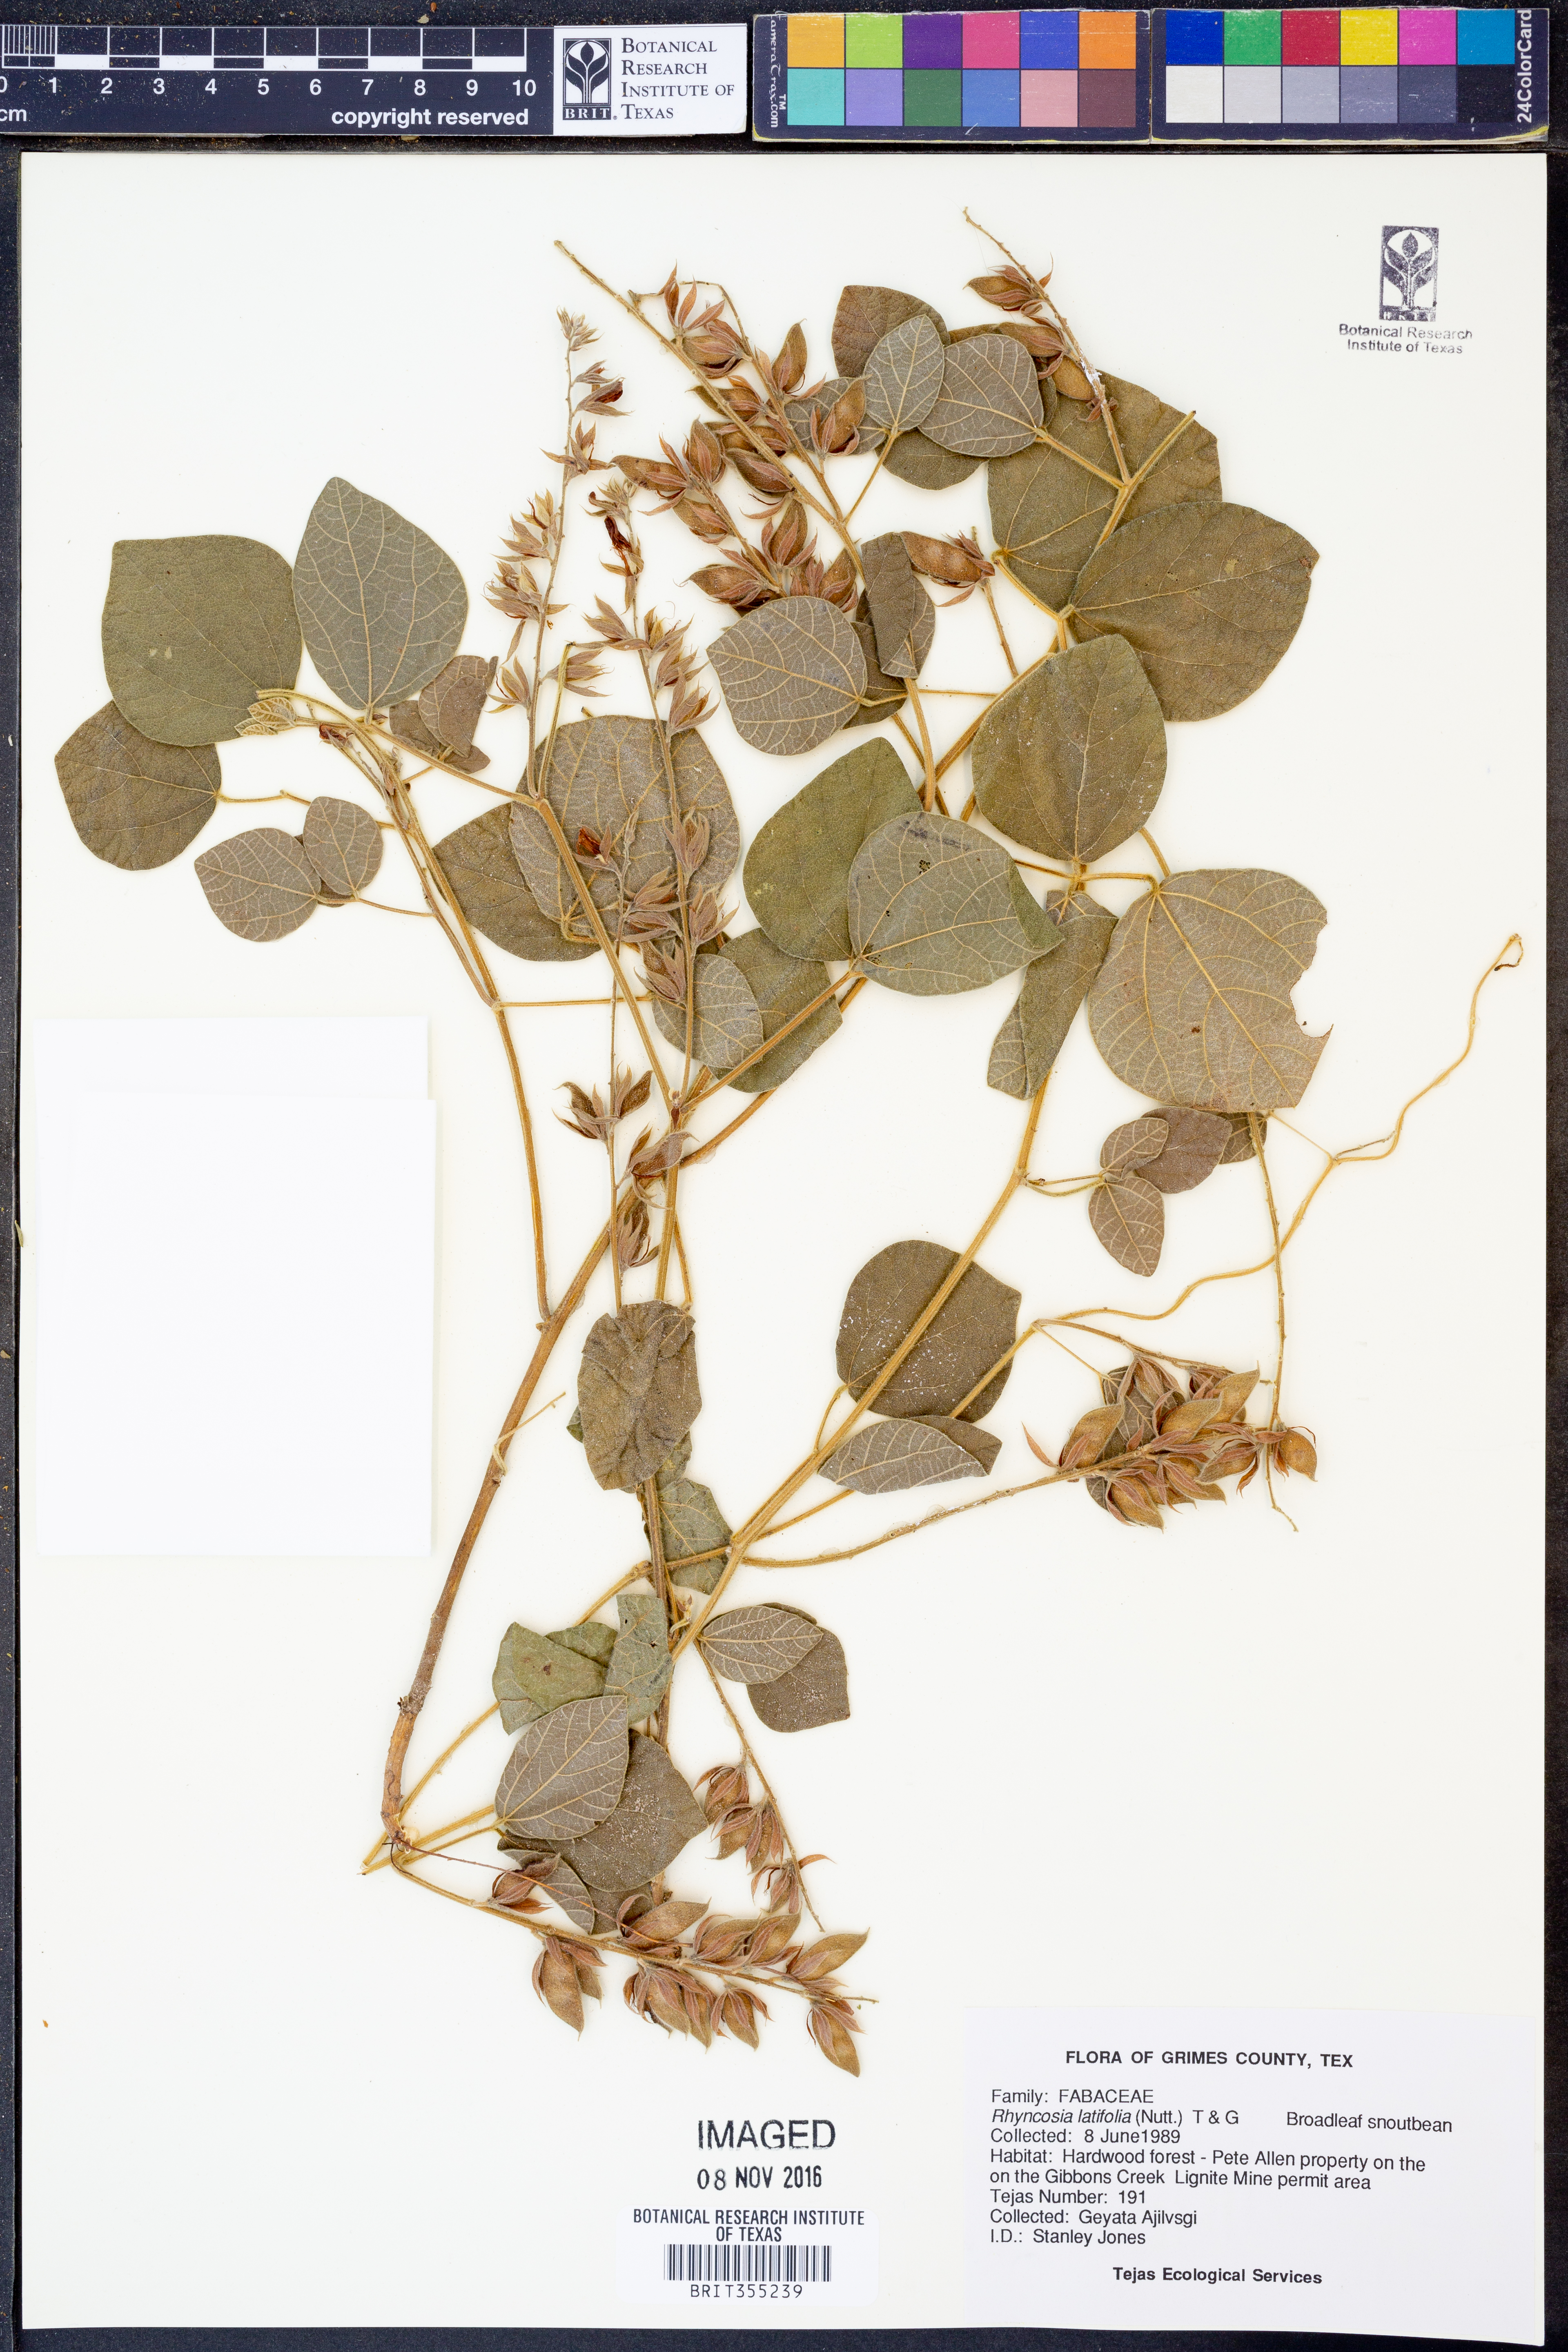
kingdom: Plantae
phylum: Tracheophyta
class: Magnoliopsida
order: Fabales
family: Fabaceae
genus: Rhynchosia
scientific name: Rhynchosia latifolia
